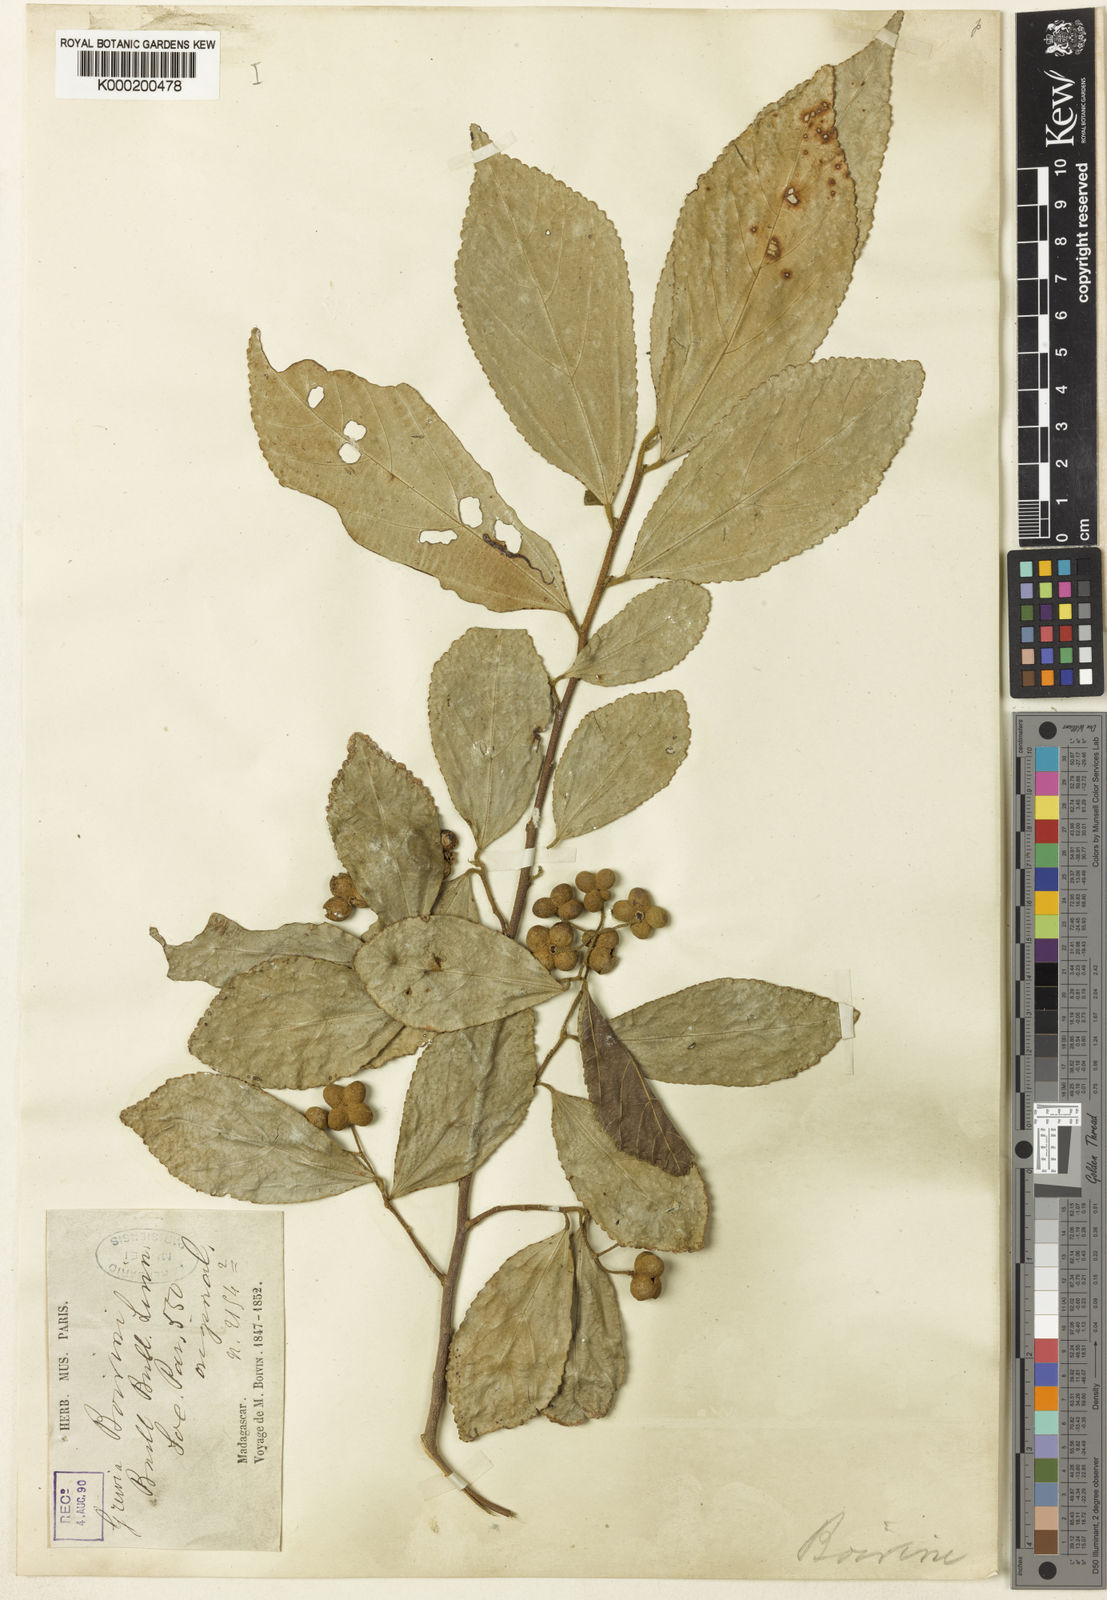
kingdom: Plantae
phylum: Tracheophyta
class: Magnoliopsida
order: Malvales
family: Malvaceae
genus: Grewia
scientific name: Grewia cuneifolia
